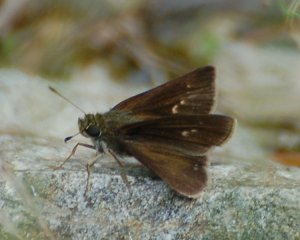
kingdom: Animalia
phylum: Arthropoda
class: Insecta
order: Lepidoptera
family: Hesperiidae
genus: Euphyes
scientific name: Euphyes vestris
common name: Dun Skipper
